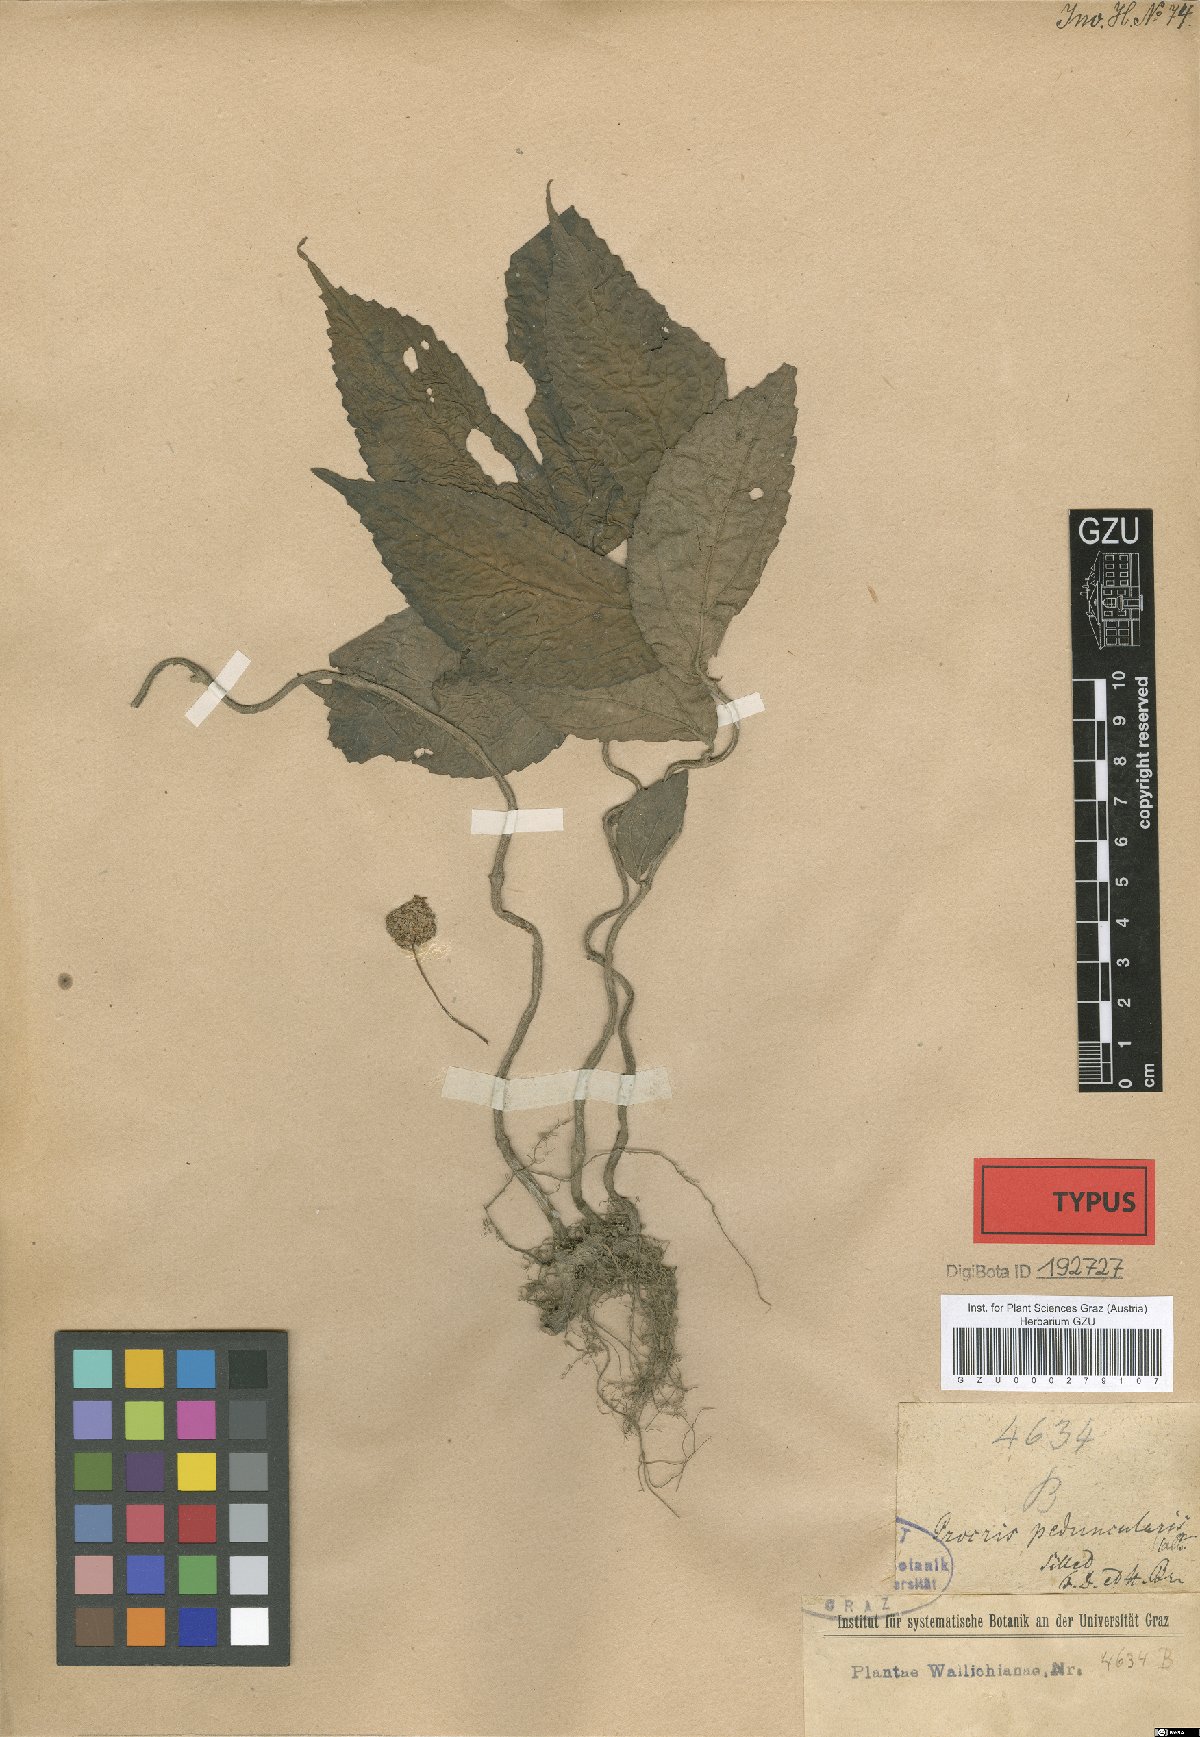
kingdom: Plantae
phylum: Tracheophyta
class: Magnoliopsida
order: Rosales
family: Urticaceae
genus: Lecanthus
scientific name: Lecanthus peduncularis
